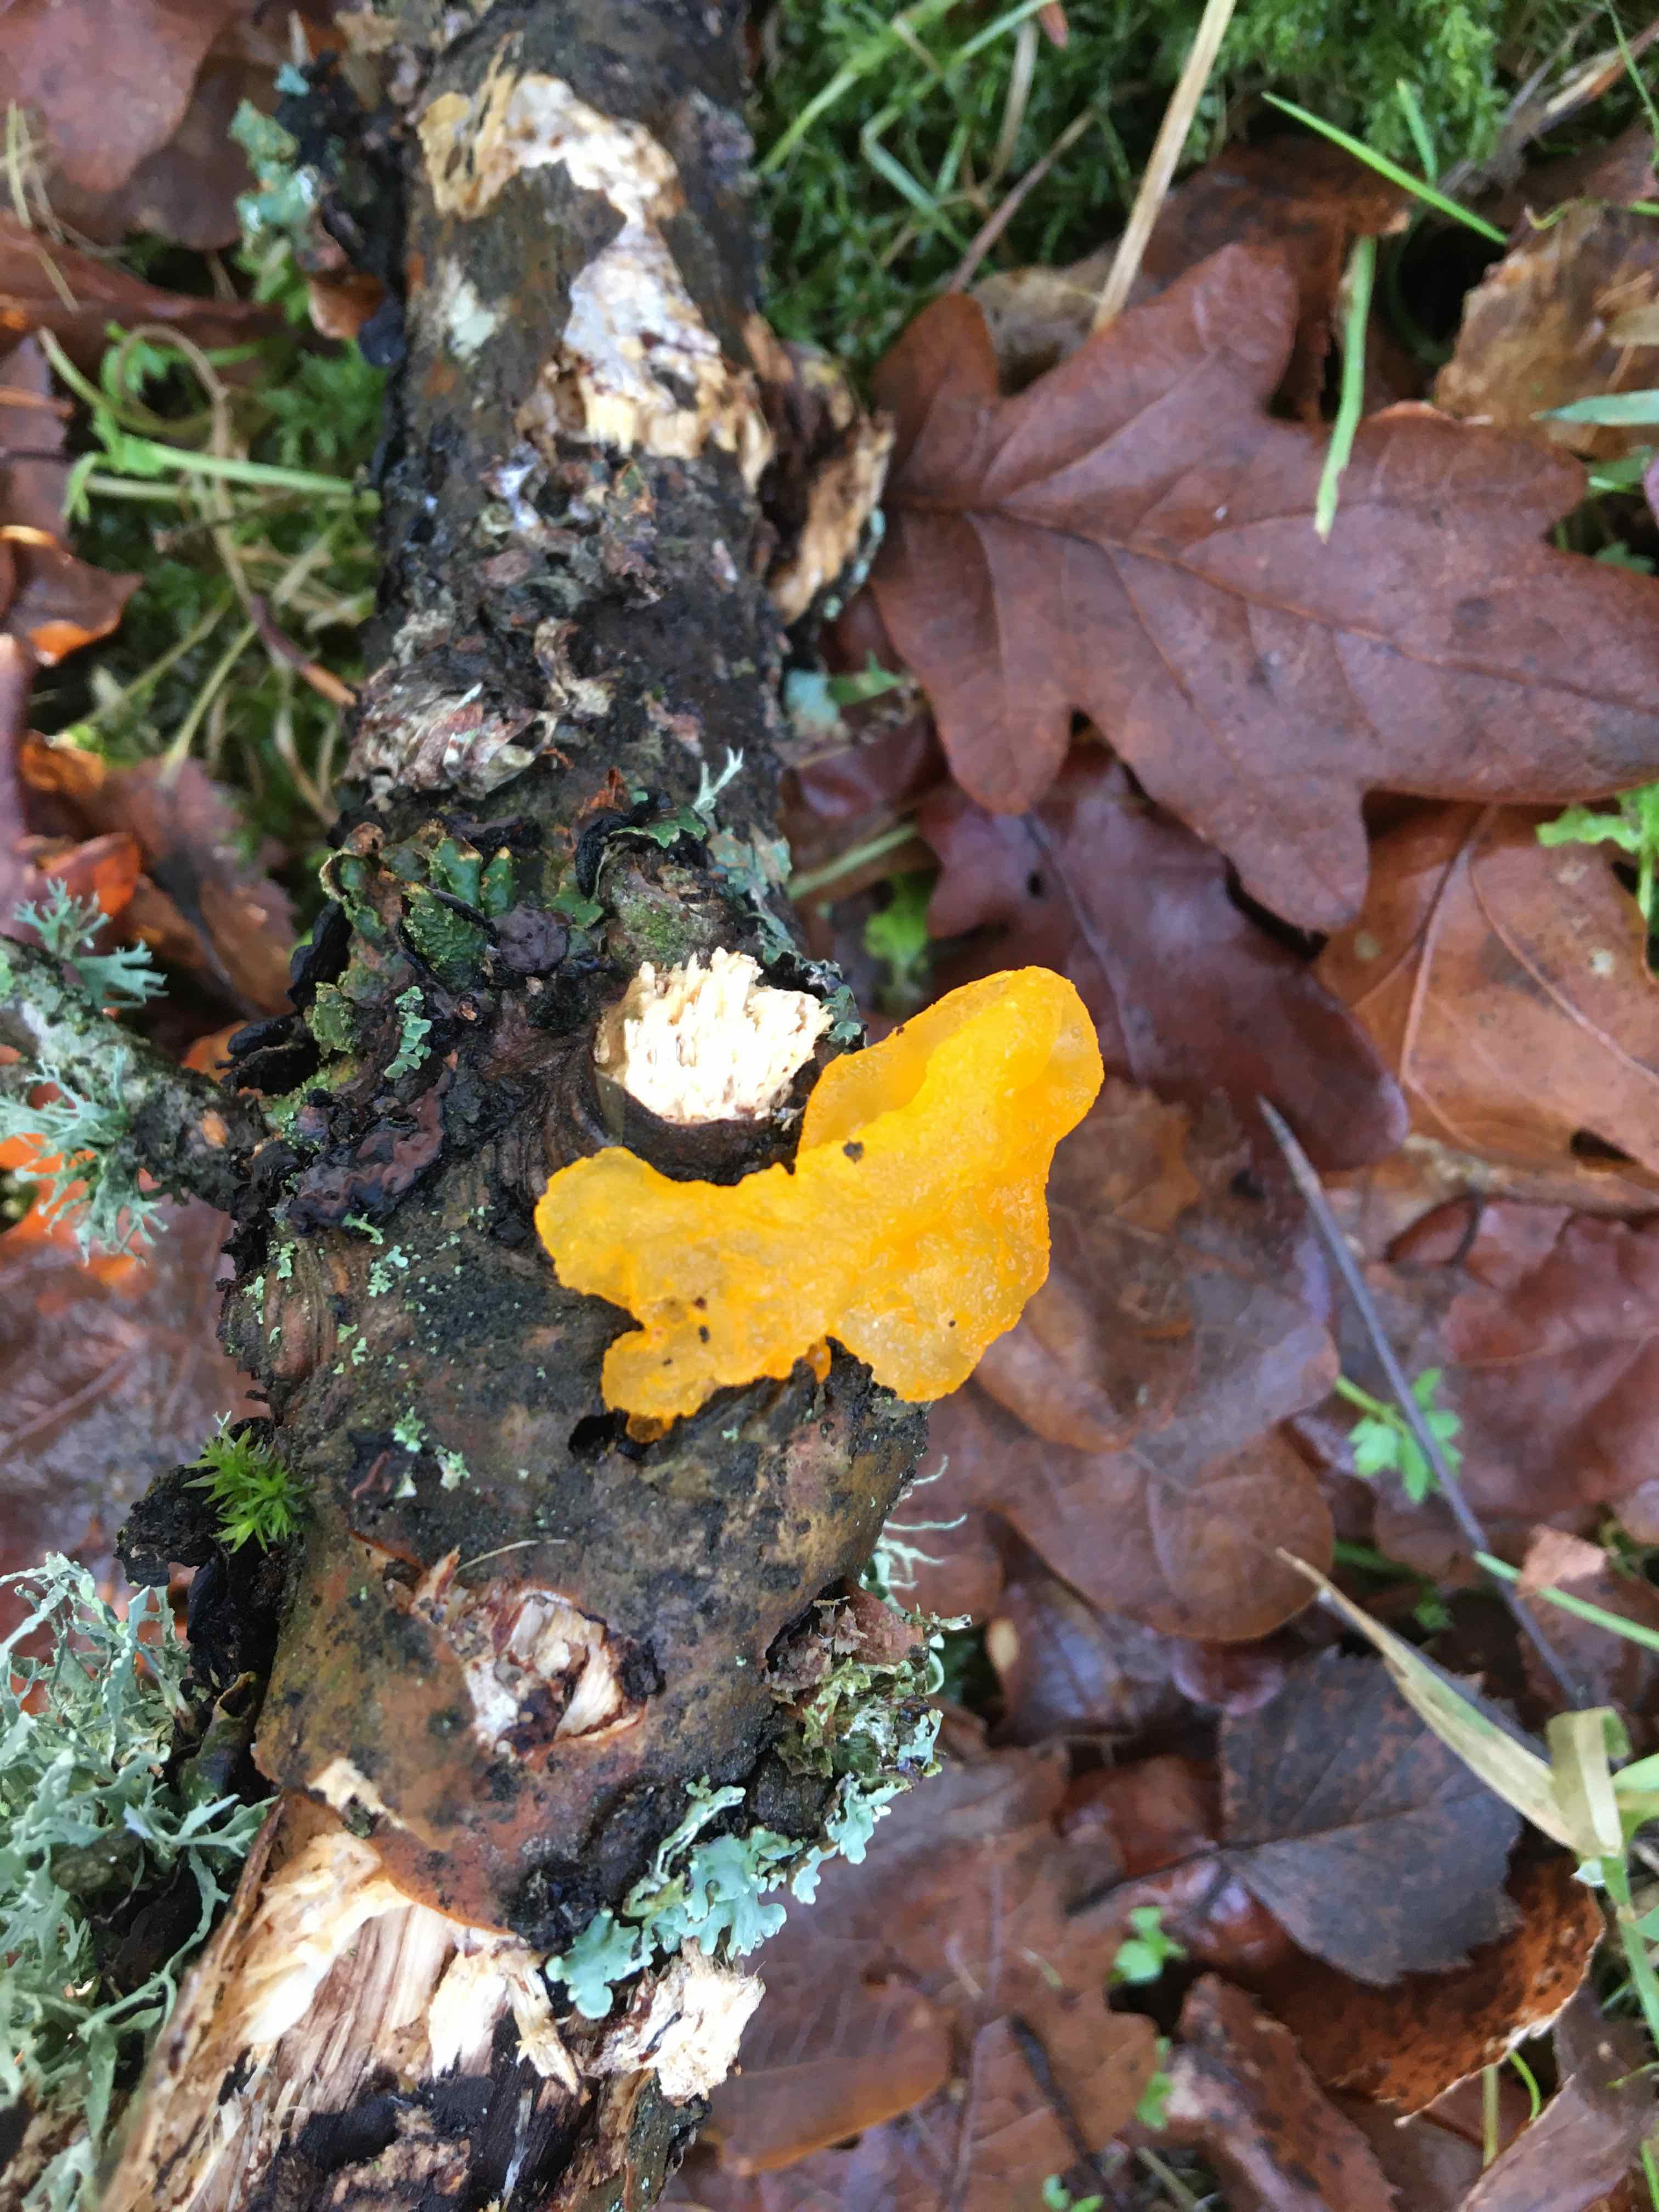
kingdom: Fungi
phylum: Basidiomycota
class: Tremellomycetes
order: Tremellales
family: Tremellaceae
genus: Tremella
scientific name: Tremella mesenterica
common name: gul bævresvamp
